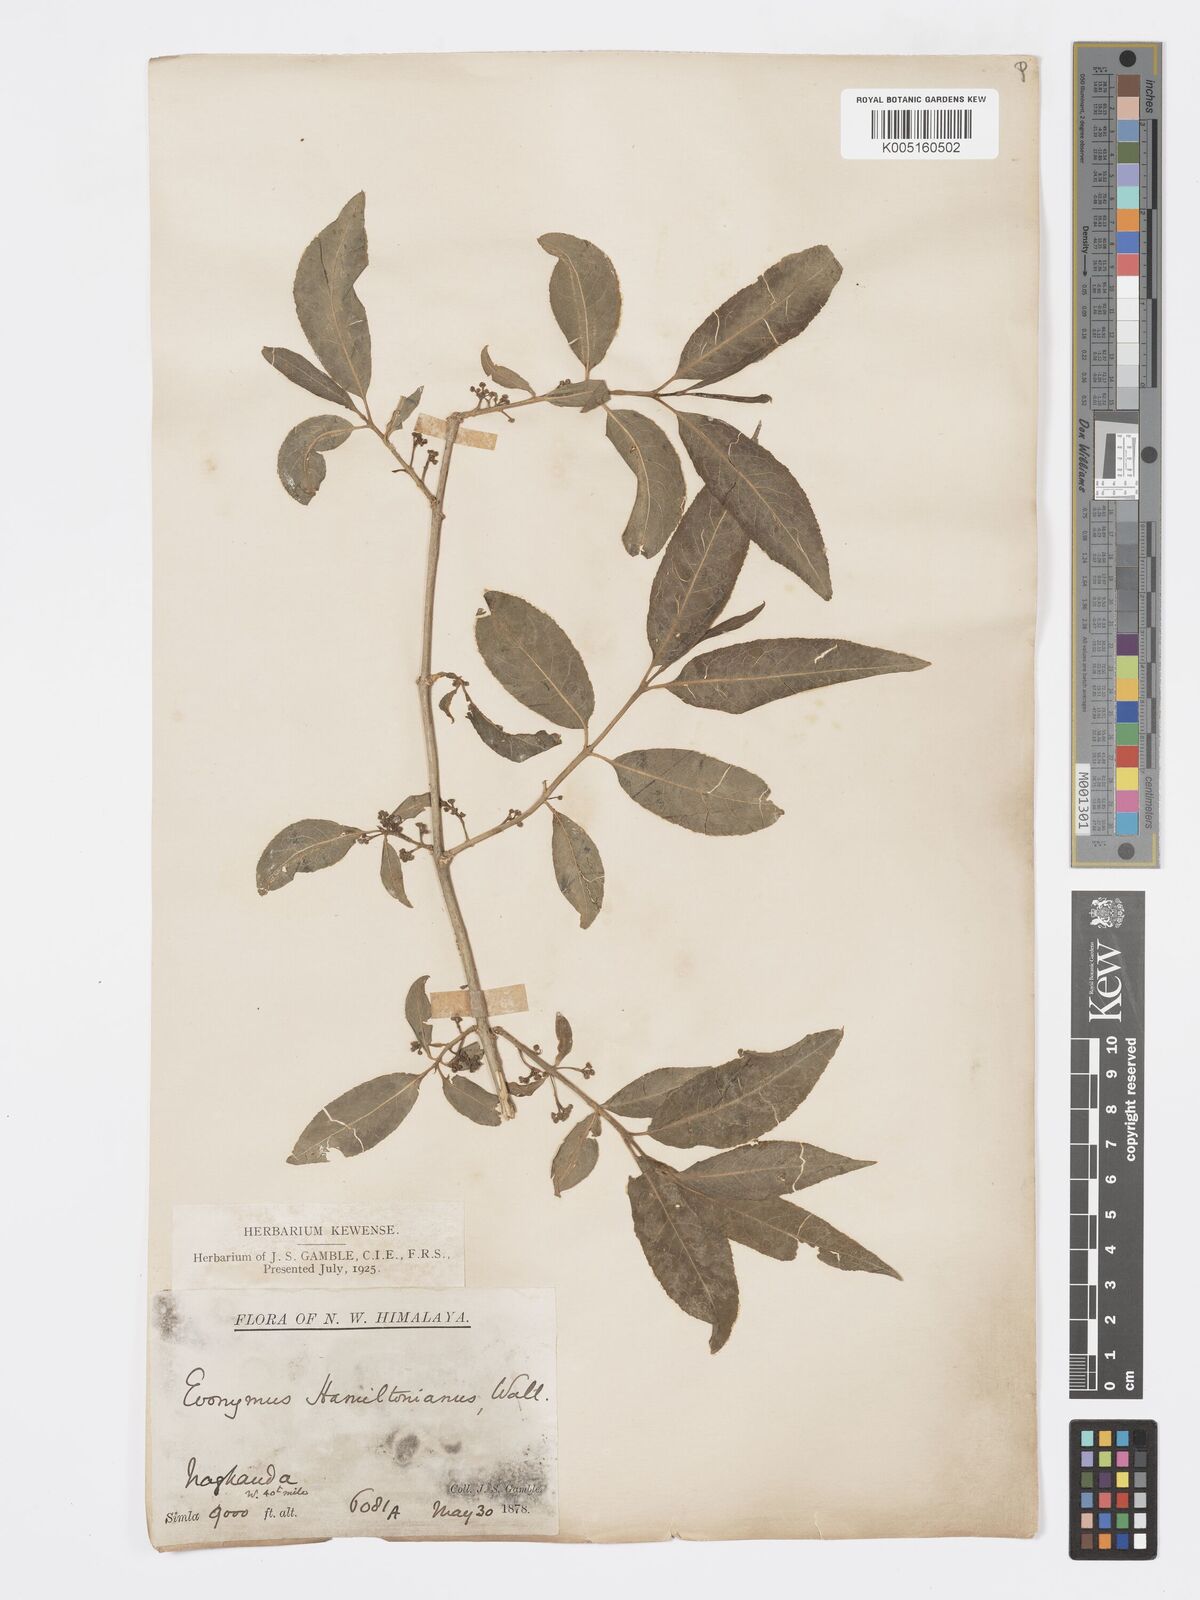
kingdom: Plantae
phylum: Tracheophyta
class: Magnoliopsida
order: Celastrales
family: Celastraceae
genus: Euonymus
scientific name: Euonymus
